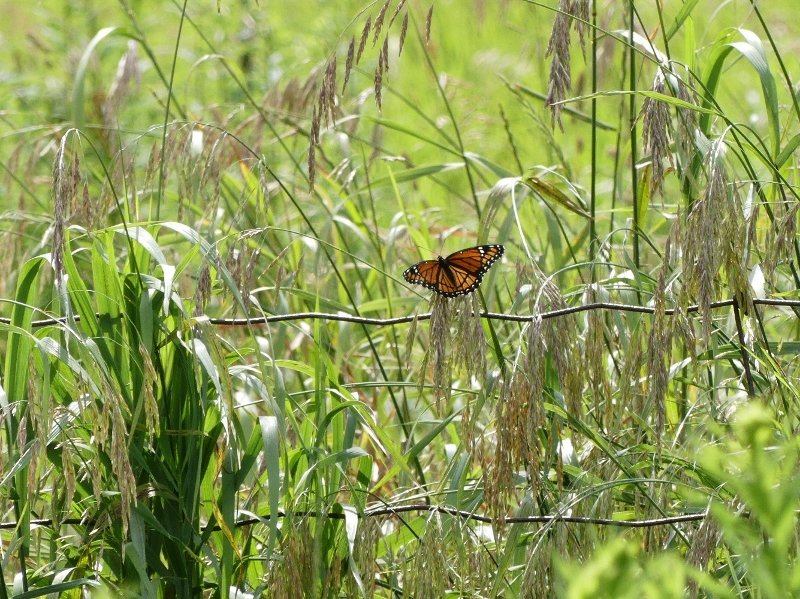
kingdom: Animalia
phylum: Arthropoda
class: Insecta
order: Lepidoptera
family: Nymphalidae
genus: Limenitis
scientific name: Limenitis archippus
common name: Viceroy
